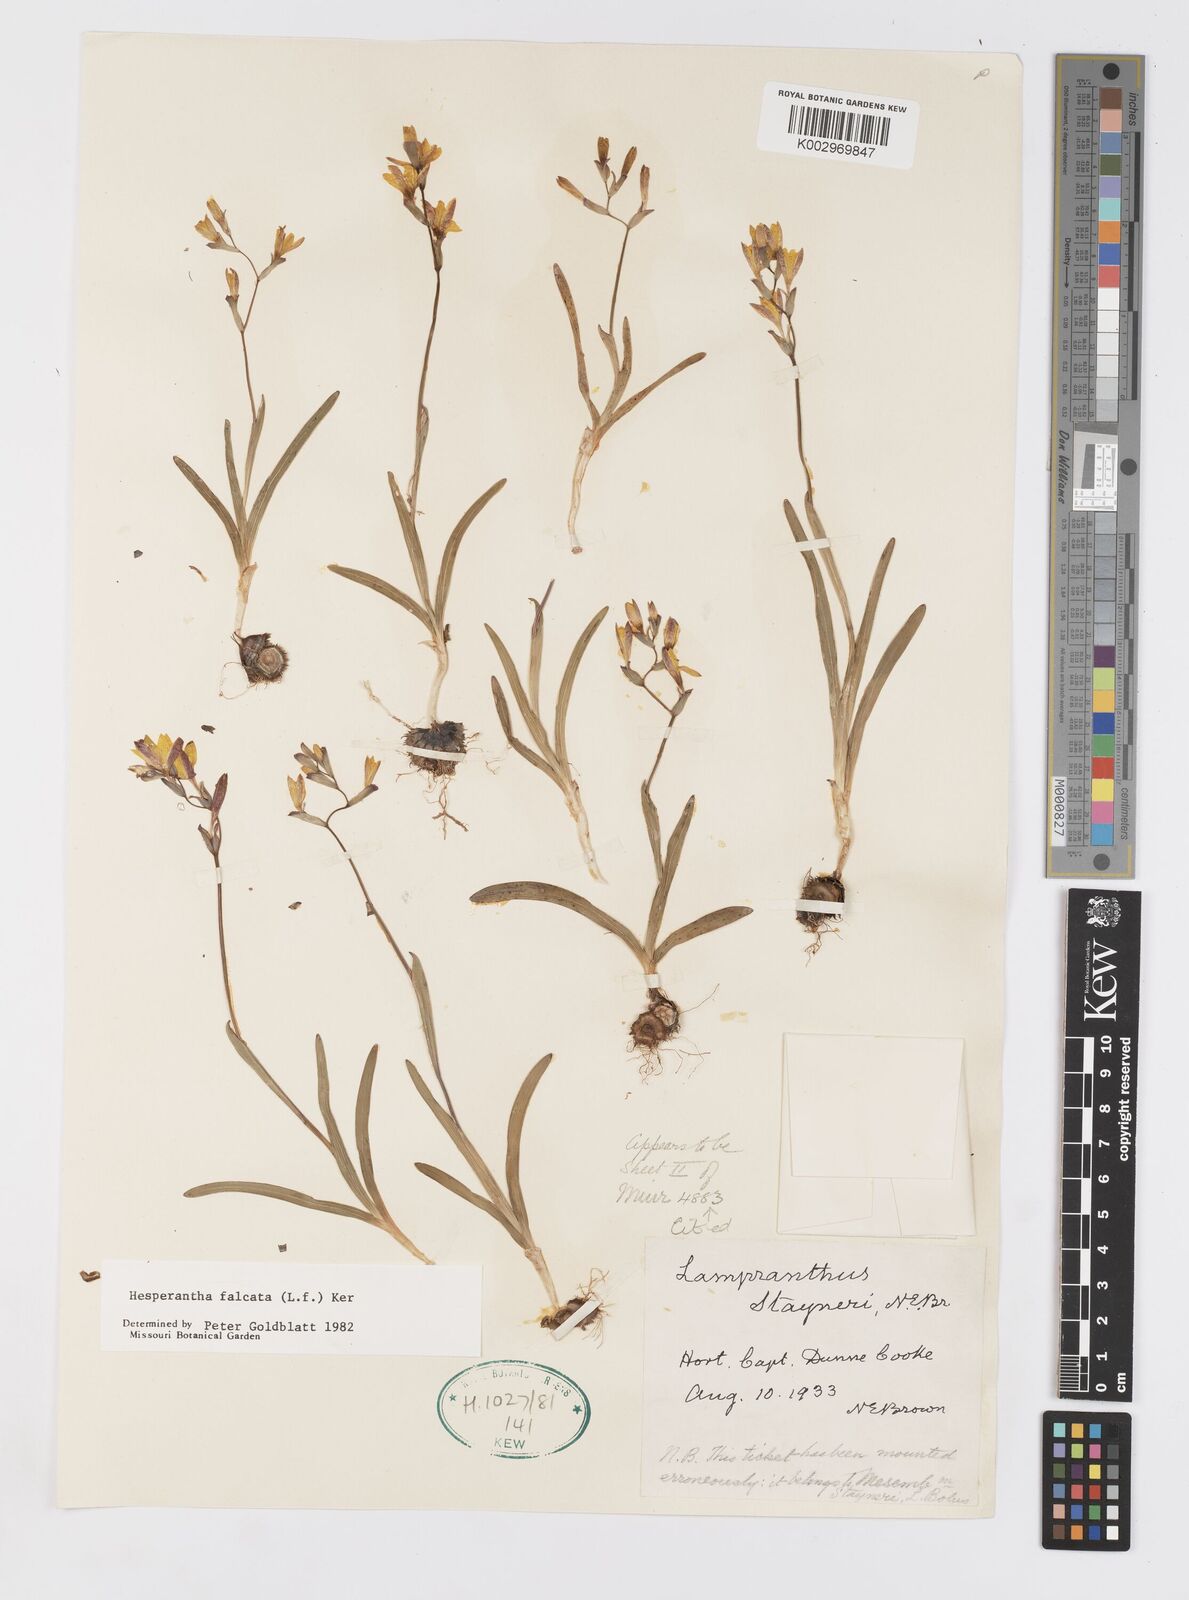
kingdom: Plantae
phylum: Tracheophyta
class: Liliopsida
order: Asparagales
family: Iridaceae
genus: Hesperantha
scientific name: Hesperantha falcata
